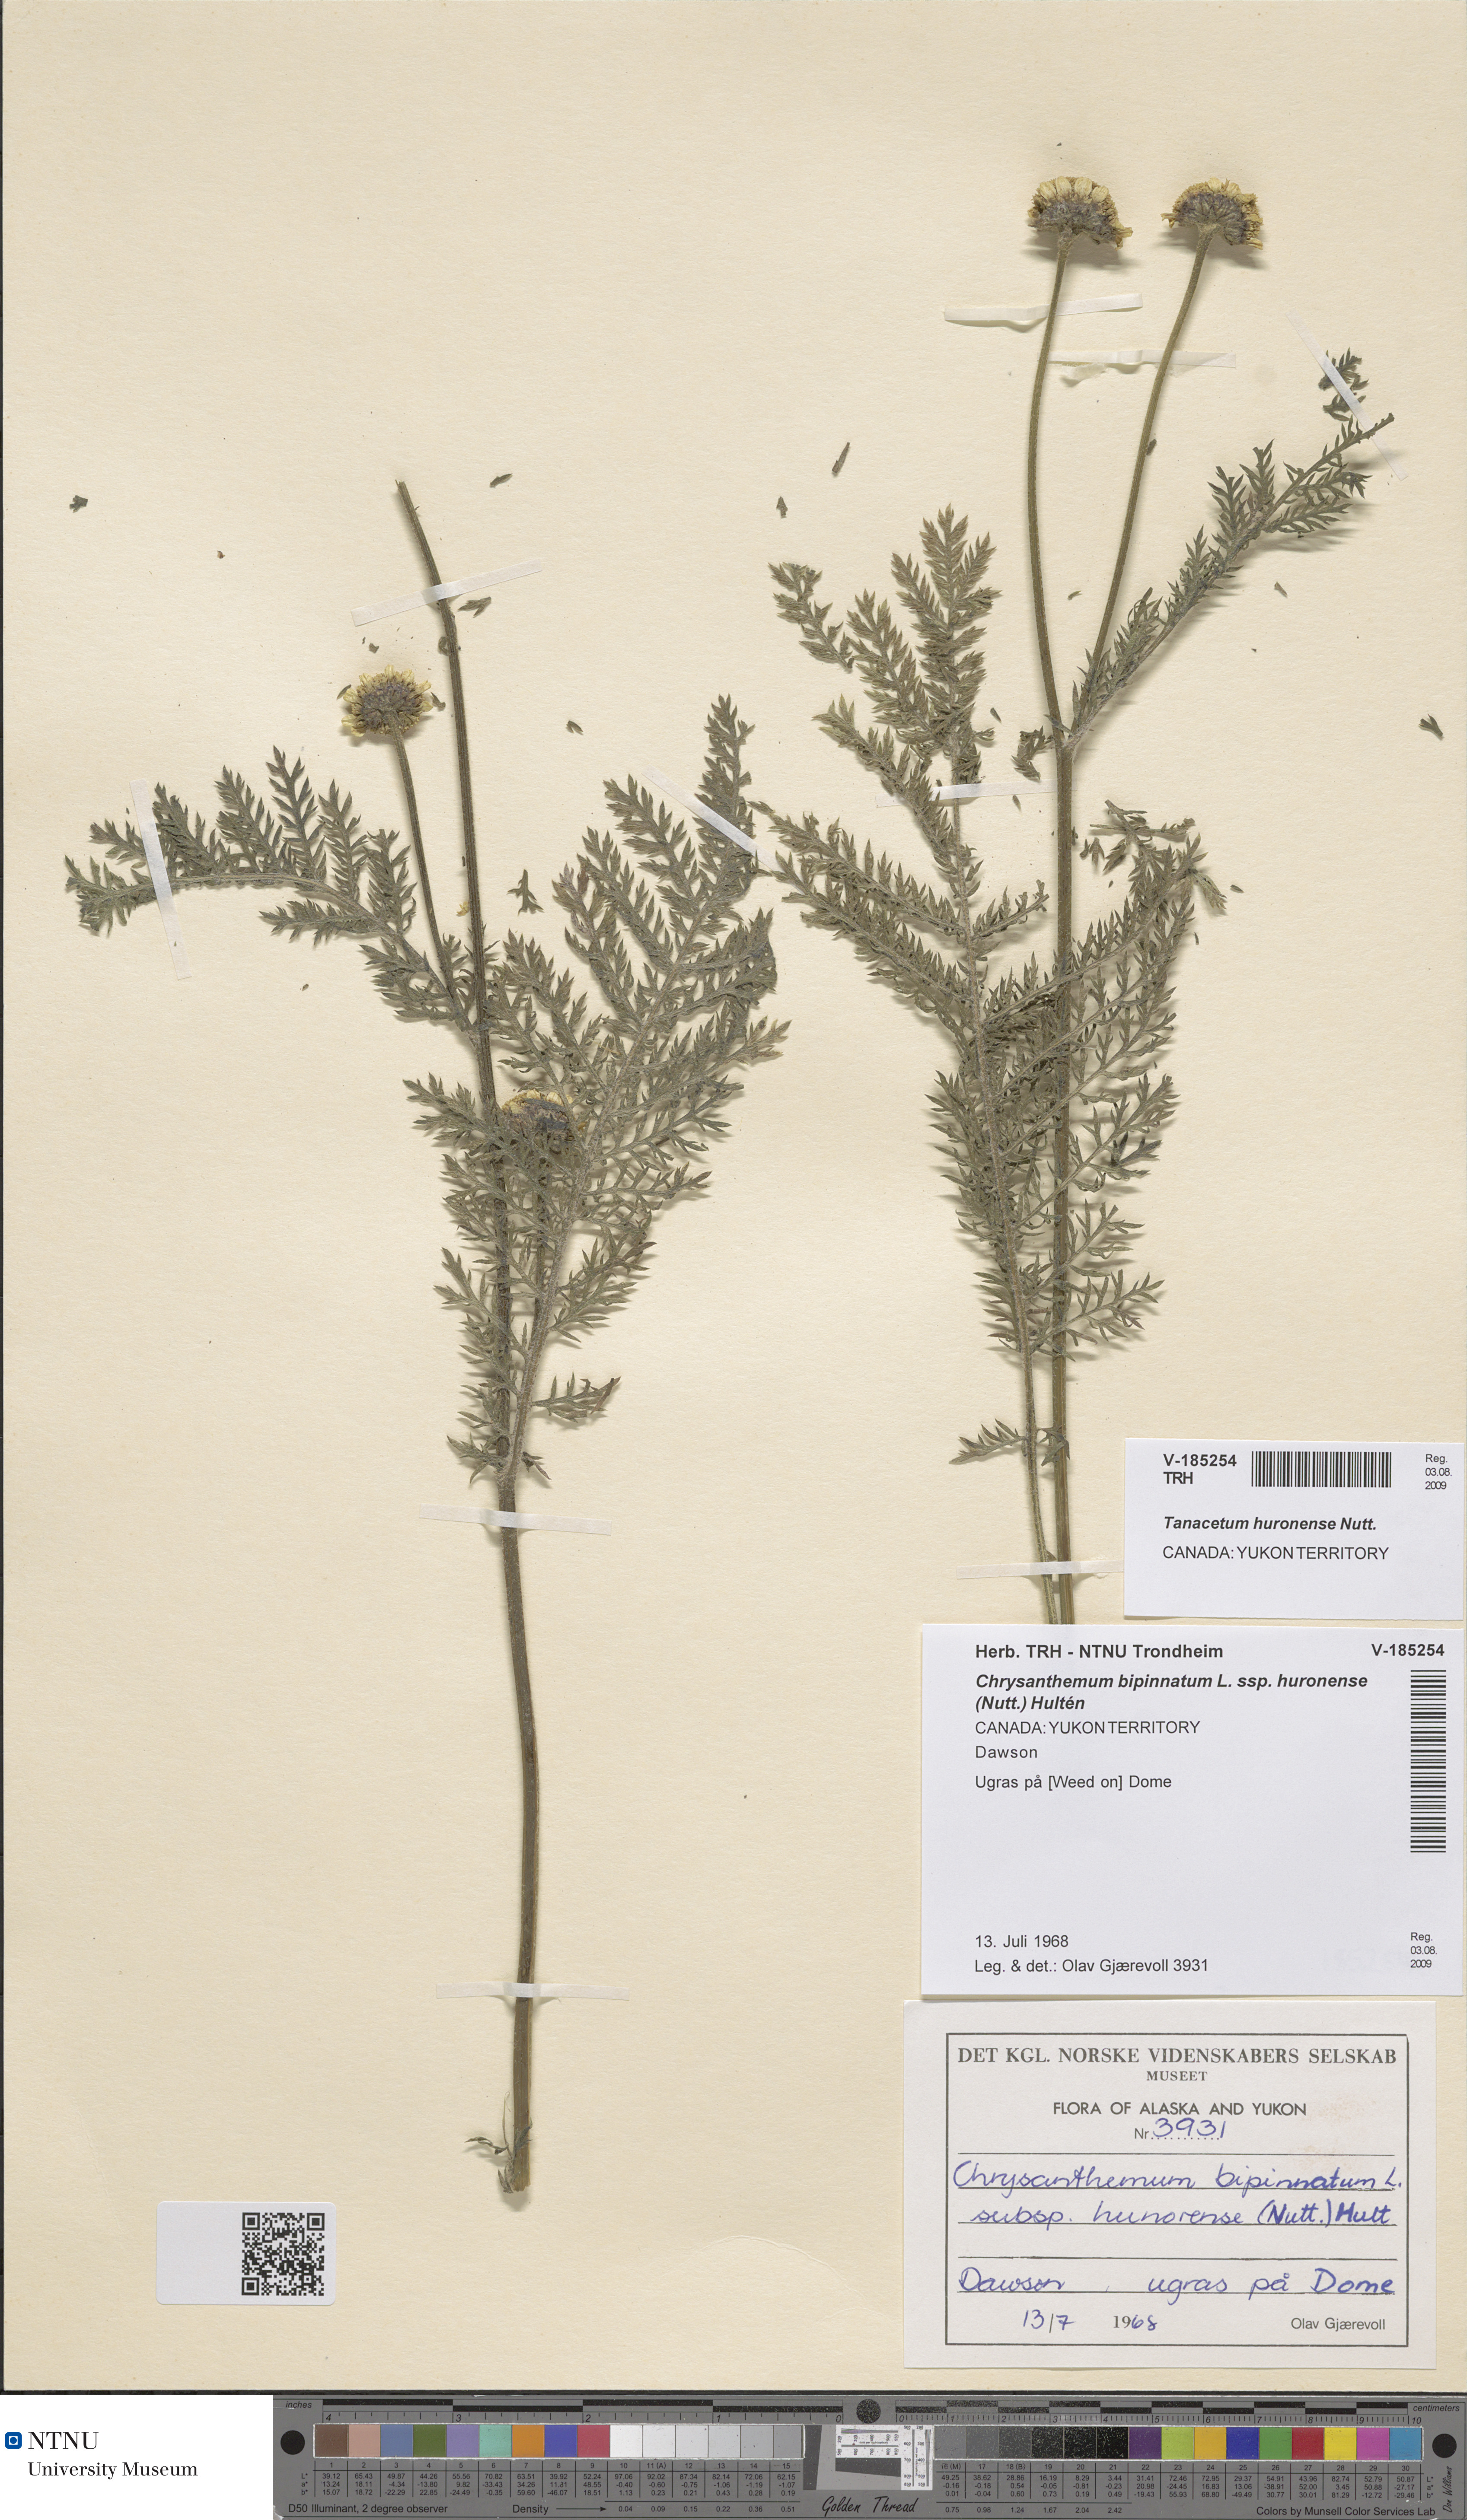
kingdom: Plantae
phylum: Tracheophyta
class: Magnoliopsida
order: Asterales
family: Asteraceae
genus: Tanacetum
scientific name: Tanacetum bipinnatum
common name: Dwarf tansy
